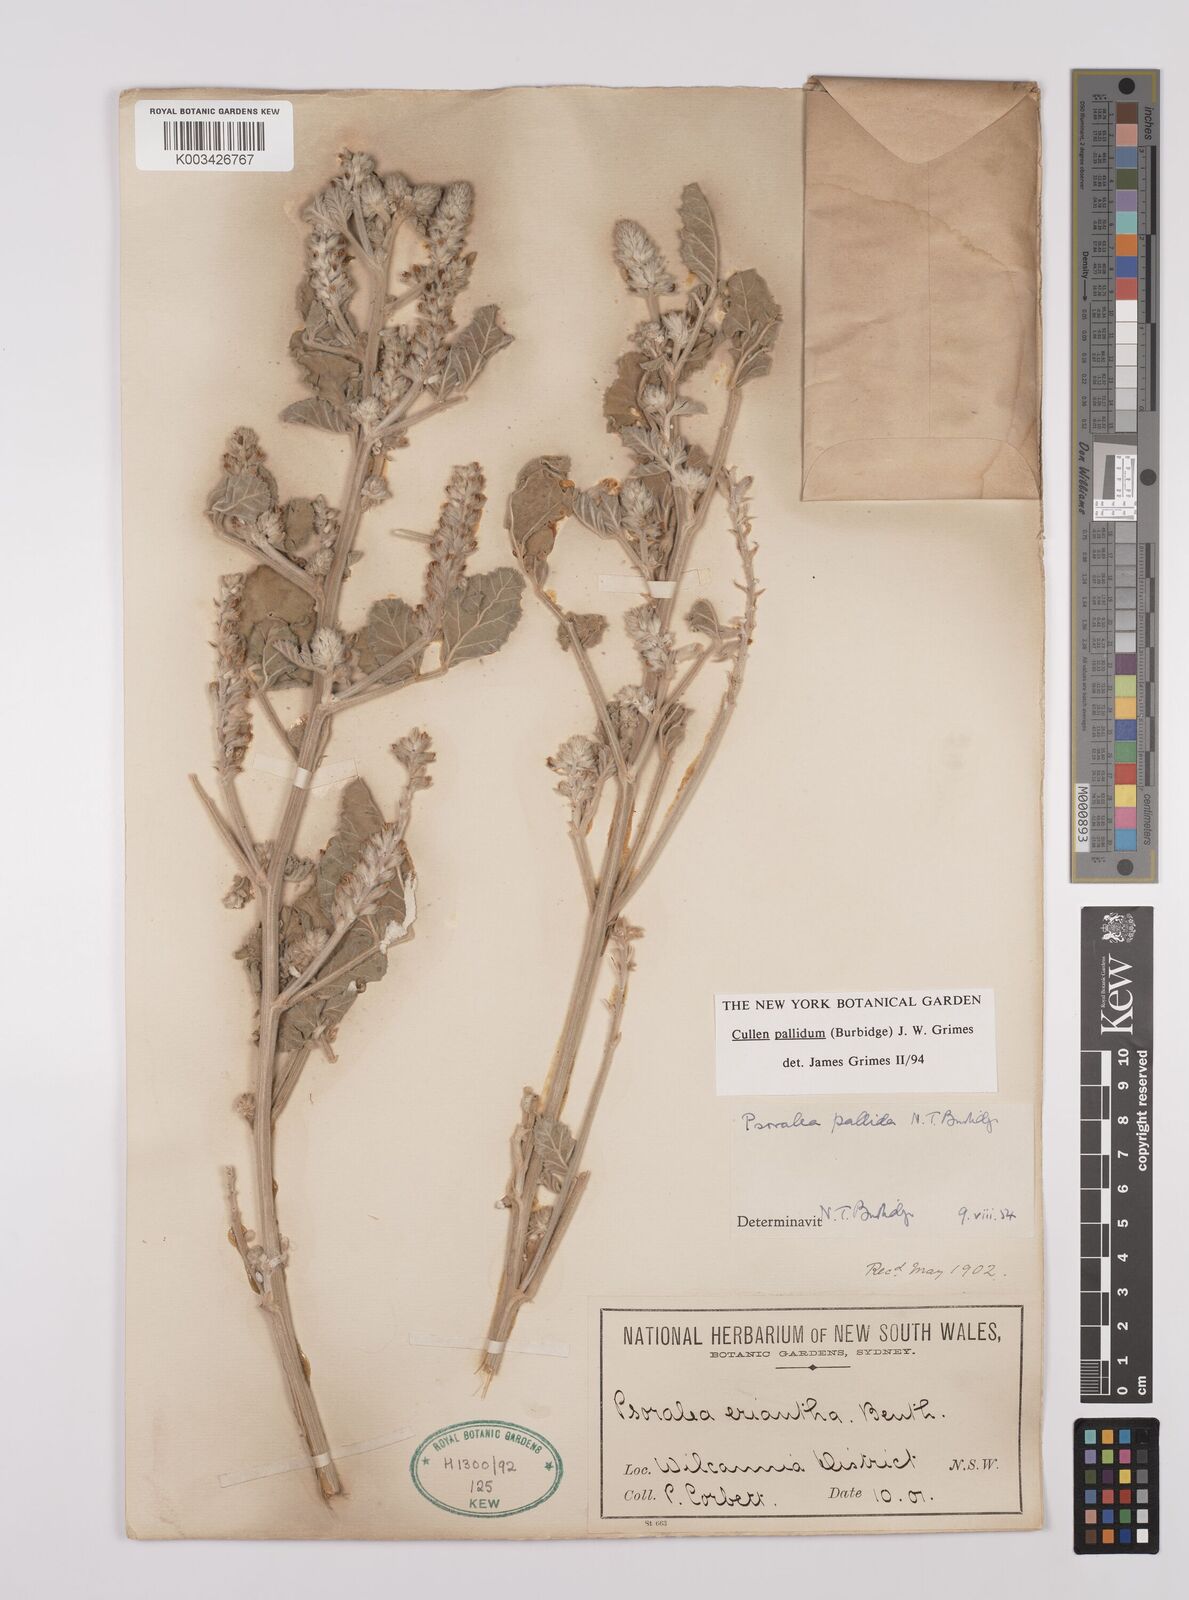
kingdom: Plantae
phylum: Tracheophyta
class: Magnoliopsida
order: Fabales
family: Fabaceae
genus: Cullen
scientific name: Cullen pallidum
